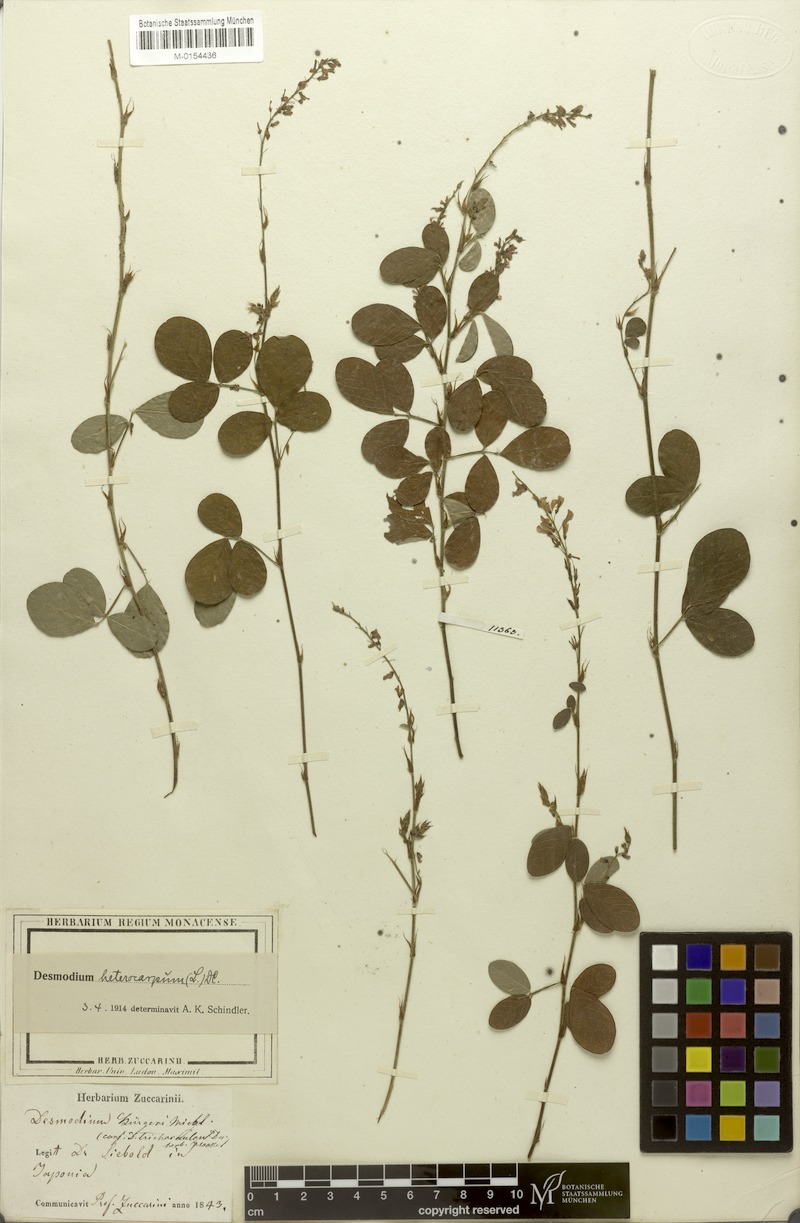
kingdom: Plantae
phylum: Tracheophyta
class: Magnoliopsida
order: Fabales
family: Fabaceae
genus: Grona
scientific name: Grona heterocarpos
